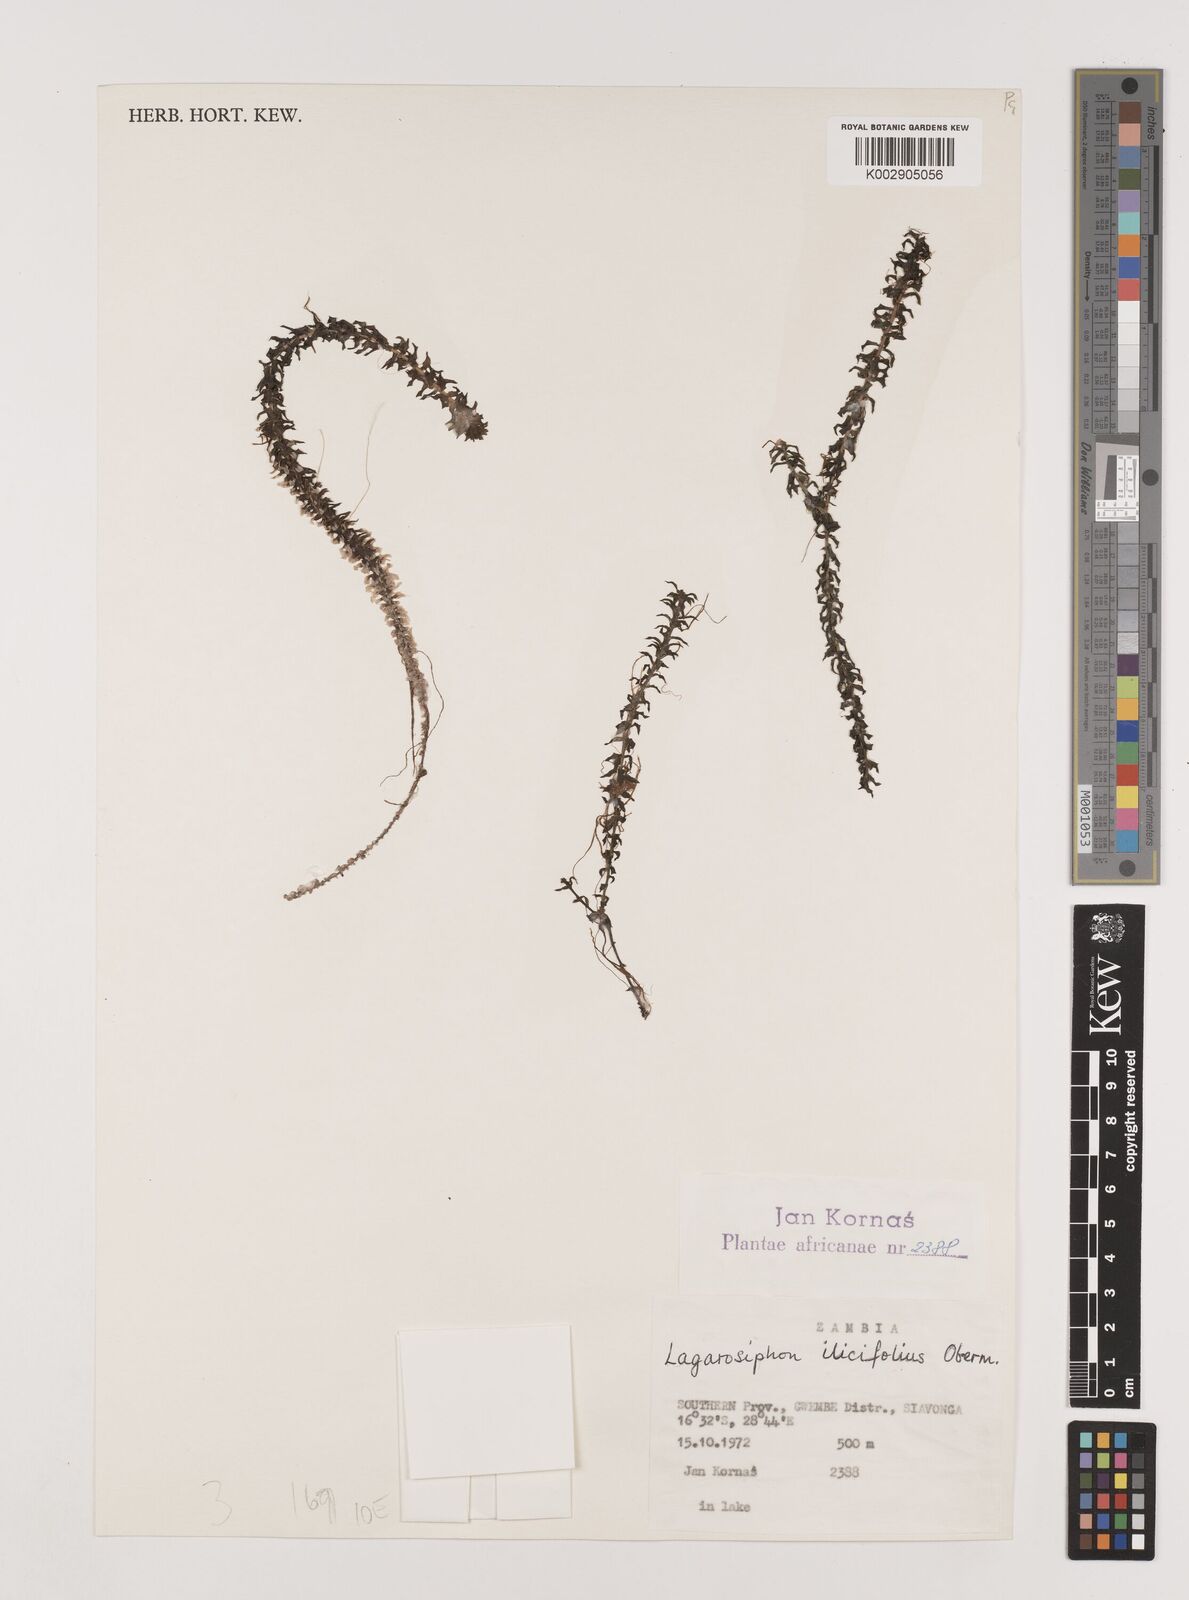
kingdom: Plantae
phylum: Tracheophyta
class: Liliopsida
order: Alismatales
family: Hydrocharitaceae
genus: Lagarosiphon
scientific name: Lagarosiphon ilicifolius
